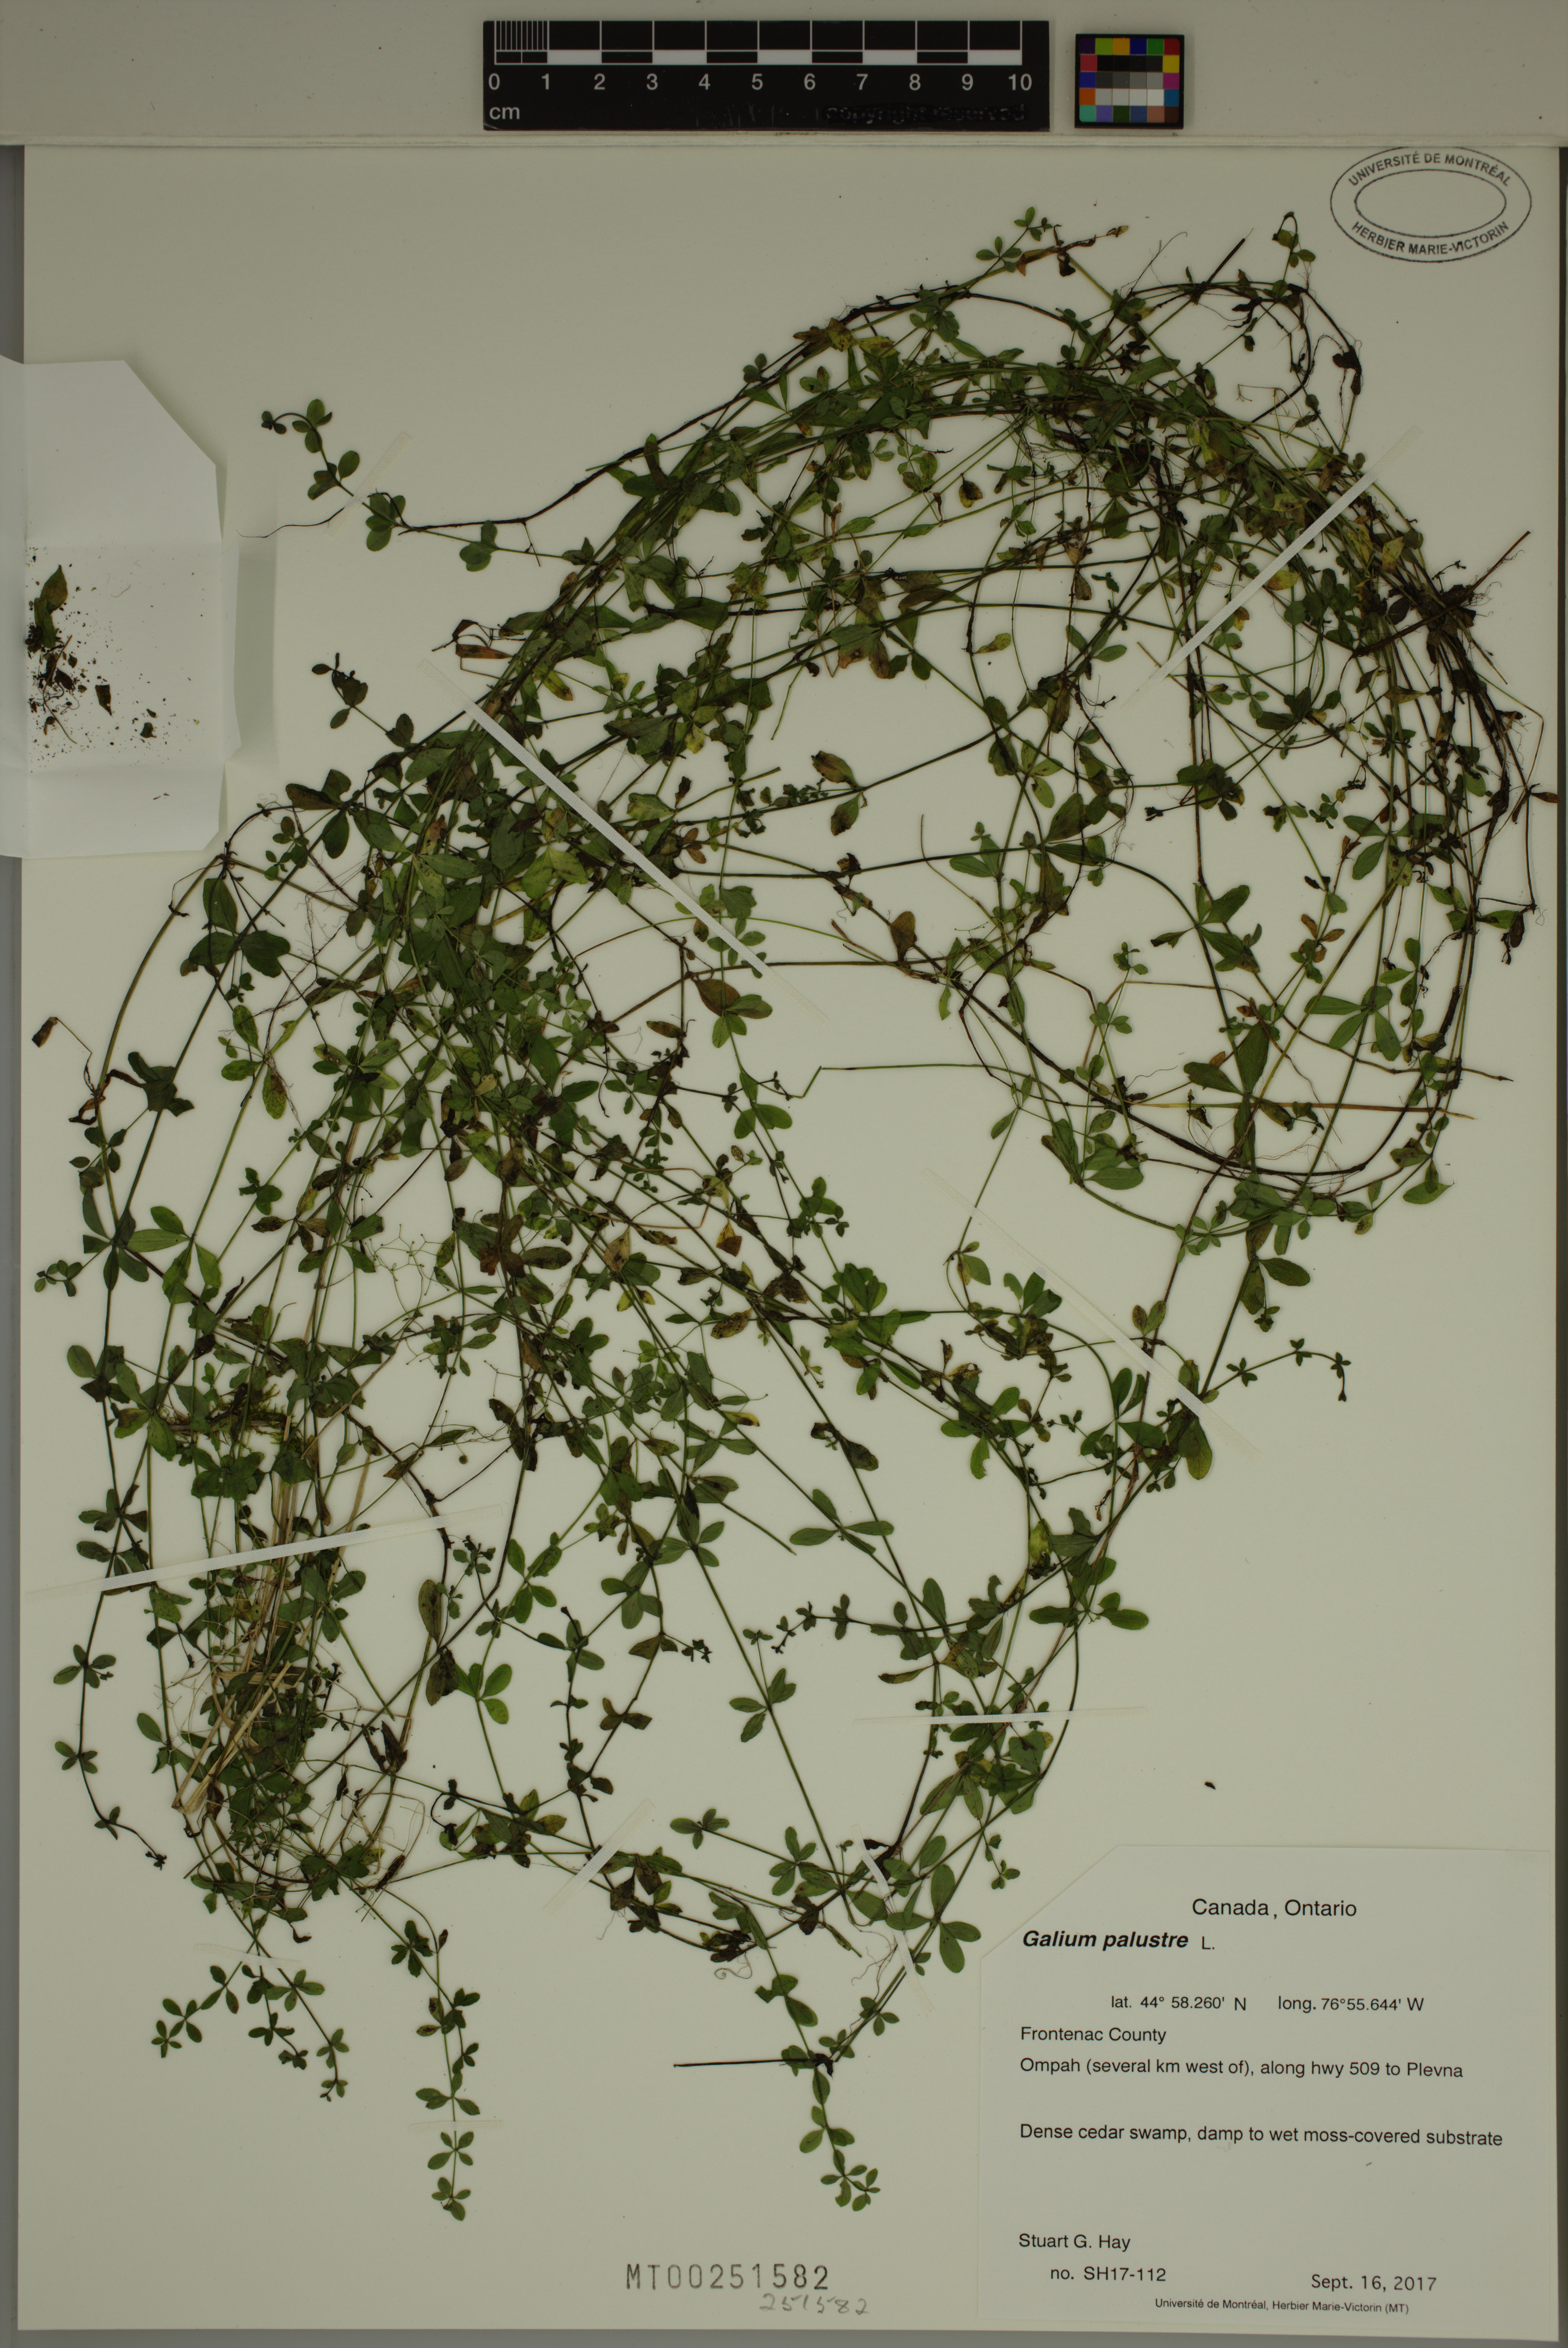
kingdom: Plantae
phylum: Tracheophyta
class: Magnoliopsida
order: Gentianales
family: Rubiaceae
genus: Galium
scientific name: Galium palustre
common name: Common marsh-bedstraw
